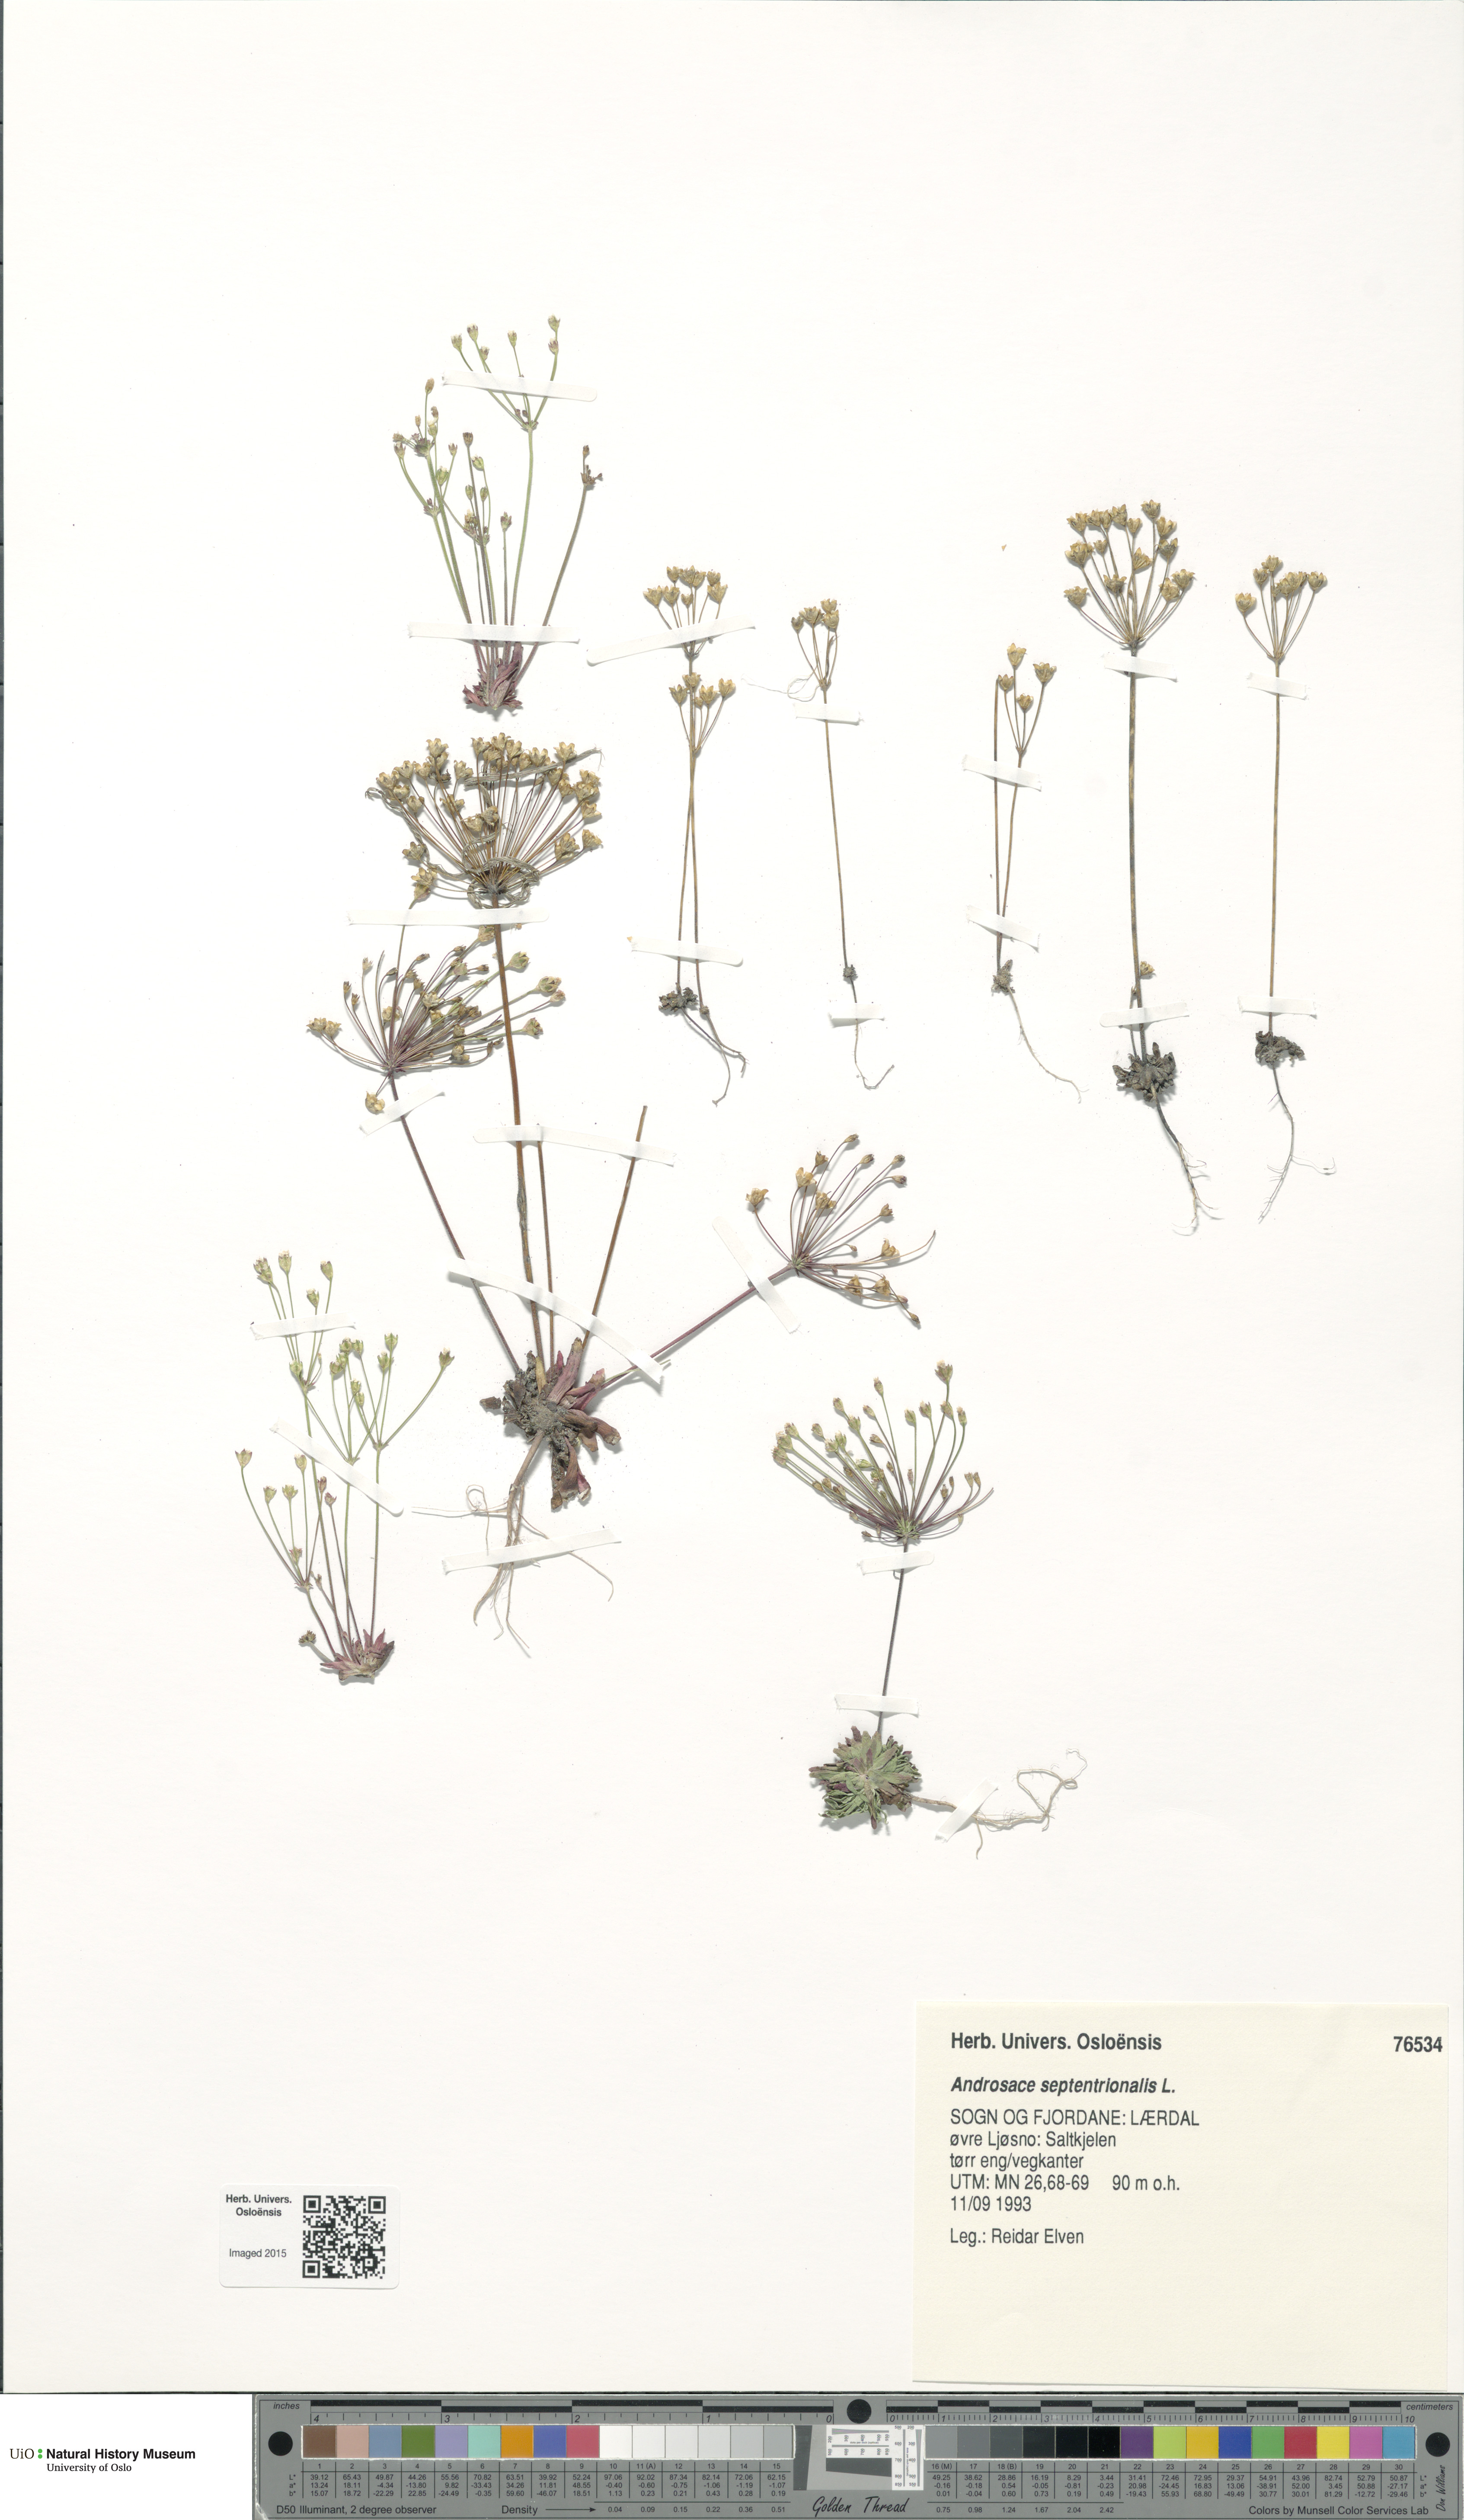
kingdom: Plantae
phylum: Tracheophyta
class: Magnoliopsida
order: Ericales
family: Primulaceae
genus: Androsace
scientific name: Androsace septentrionalis
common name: Hairy northern fairy-candelabra
